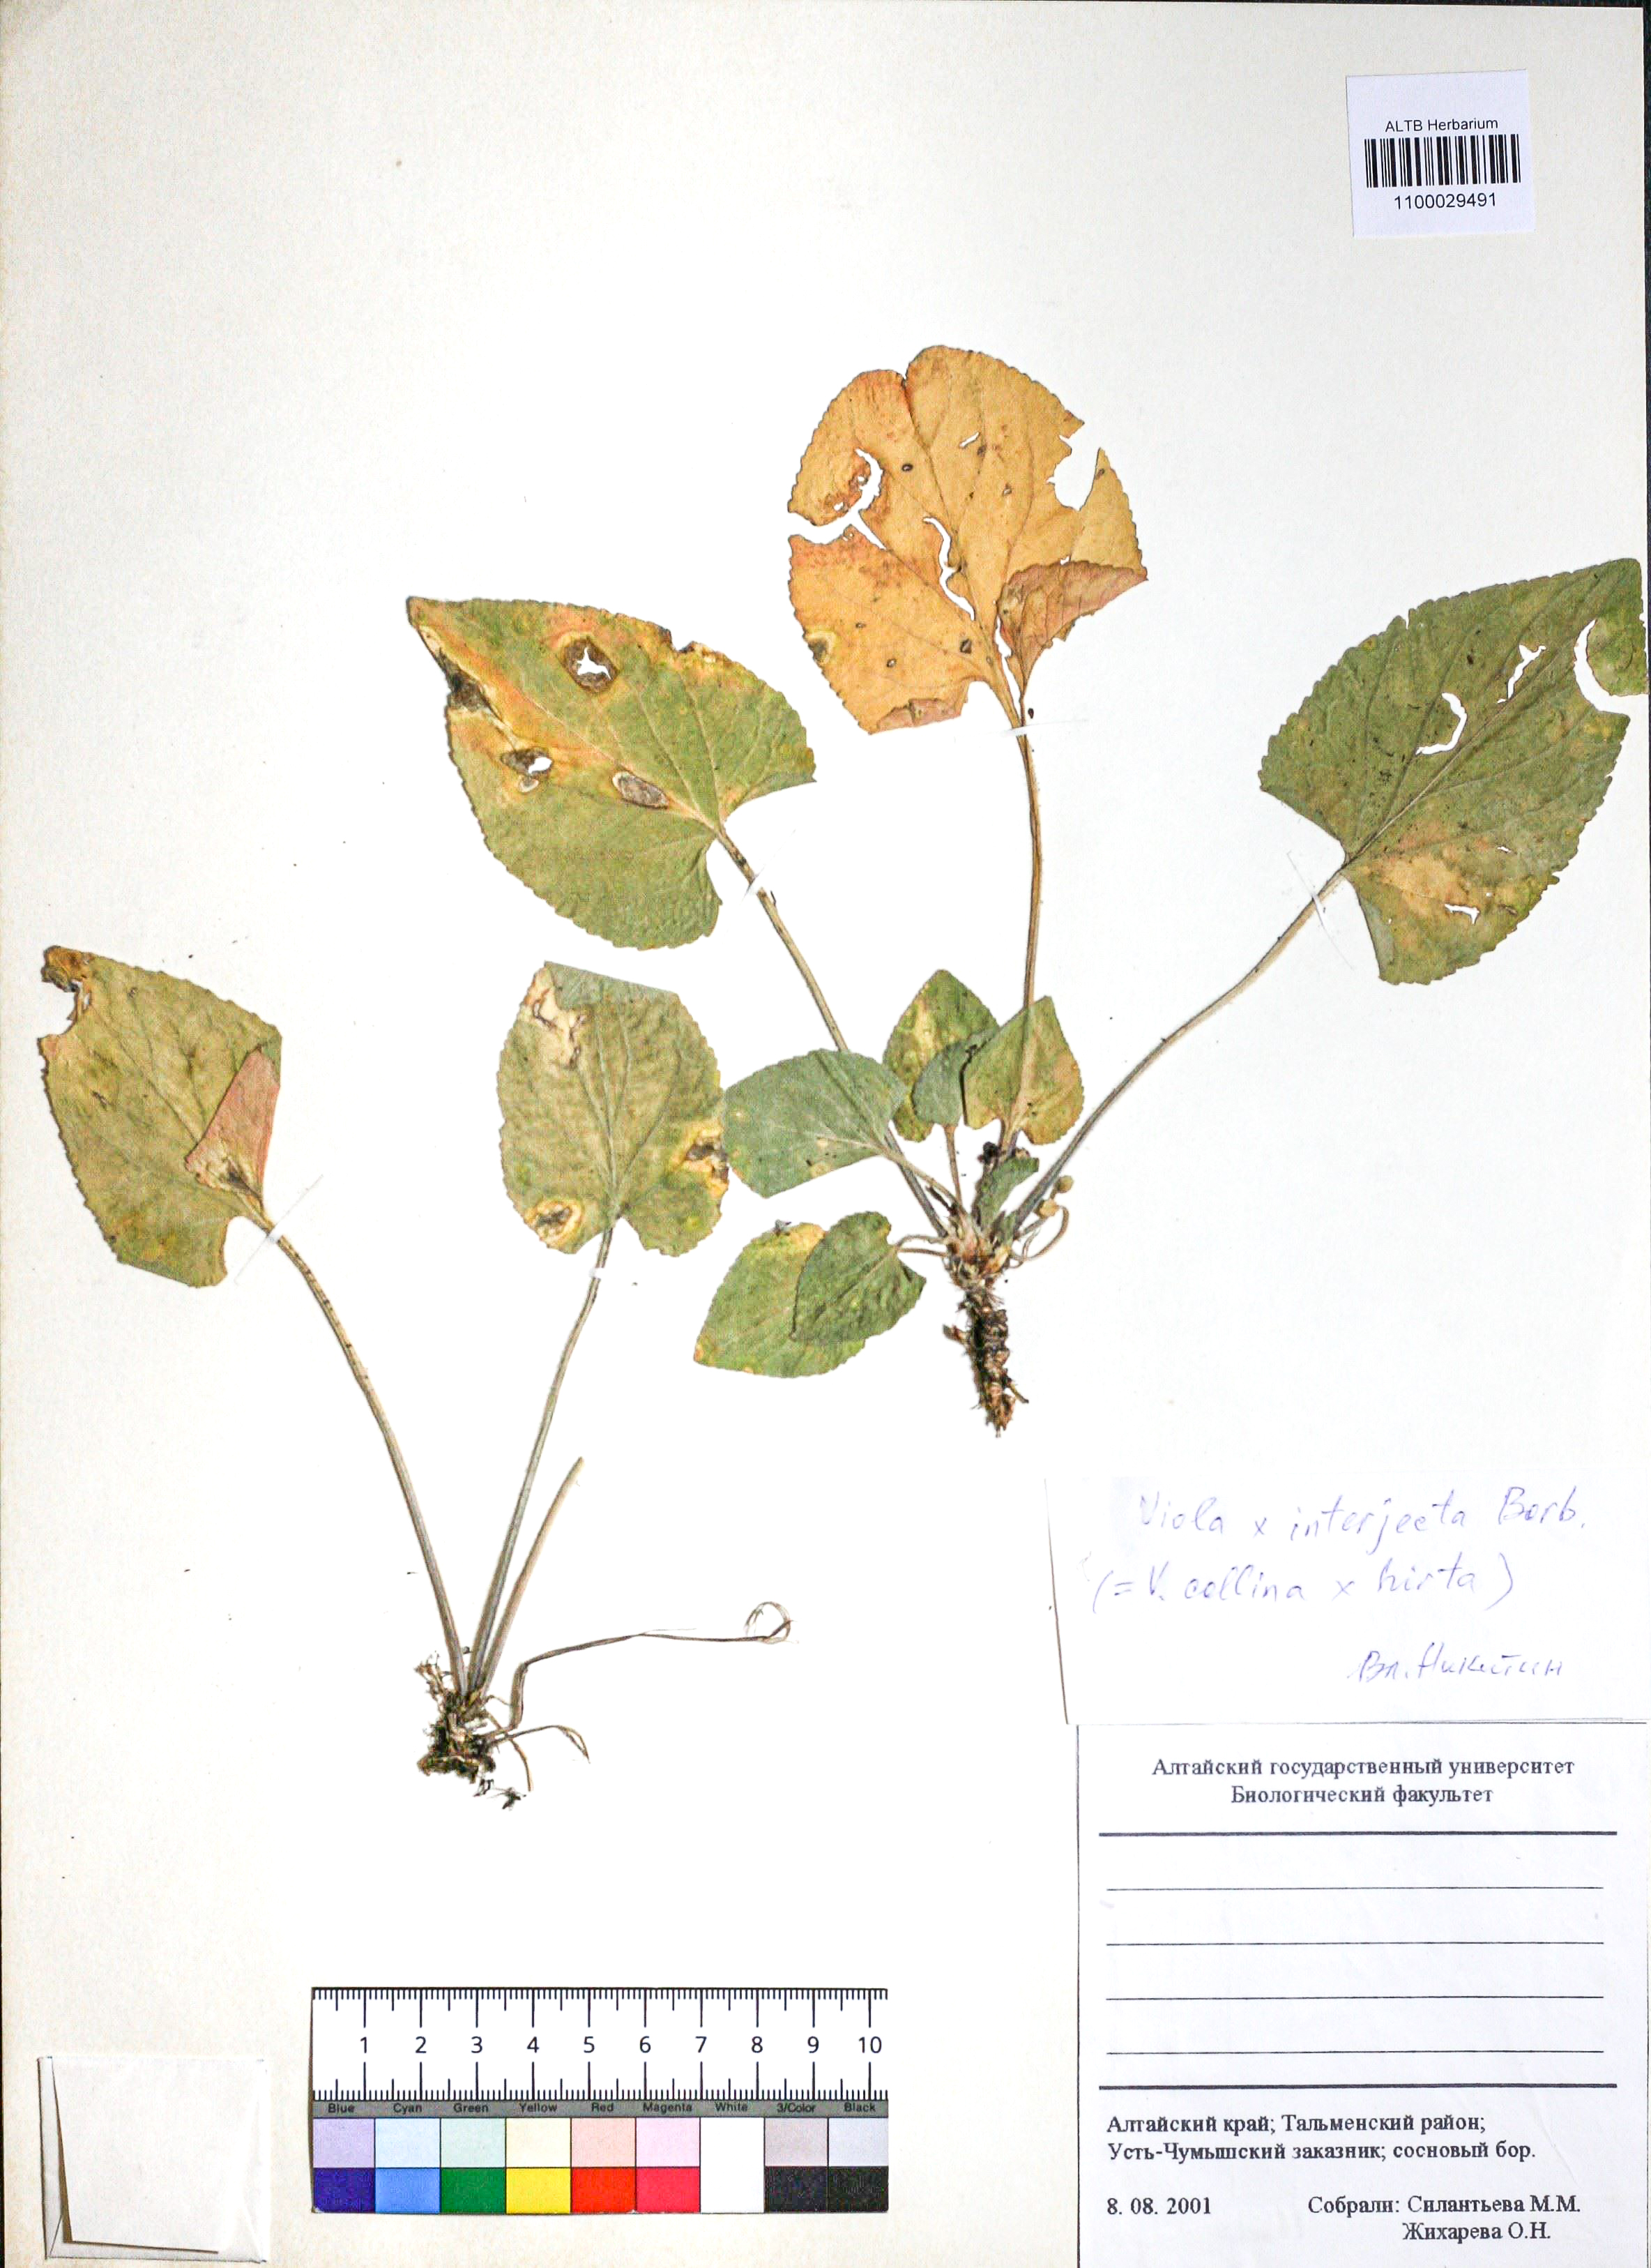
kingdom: Plantae
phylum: Tracheophyta
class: Magnoliopsida
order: Malpighiales
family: Violaceae
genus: Viola
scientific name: Viola interjecta
